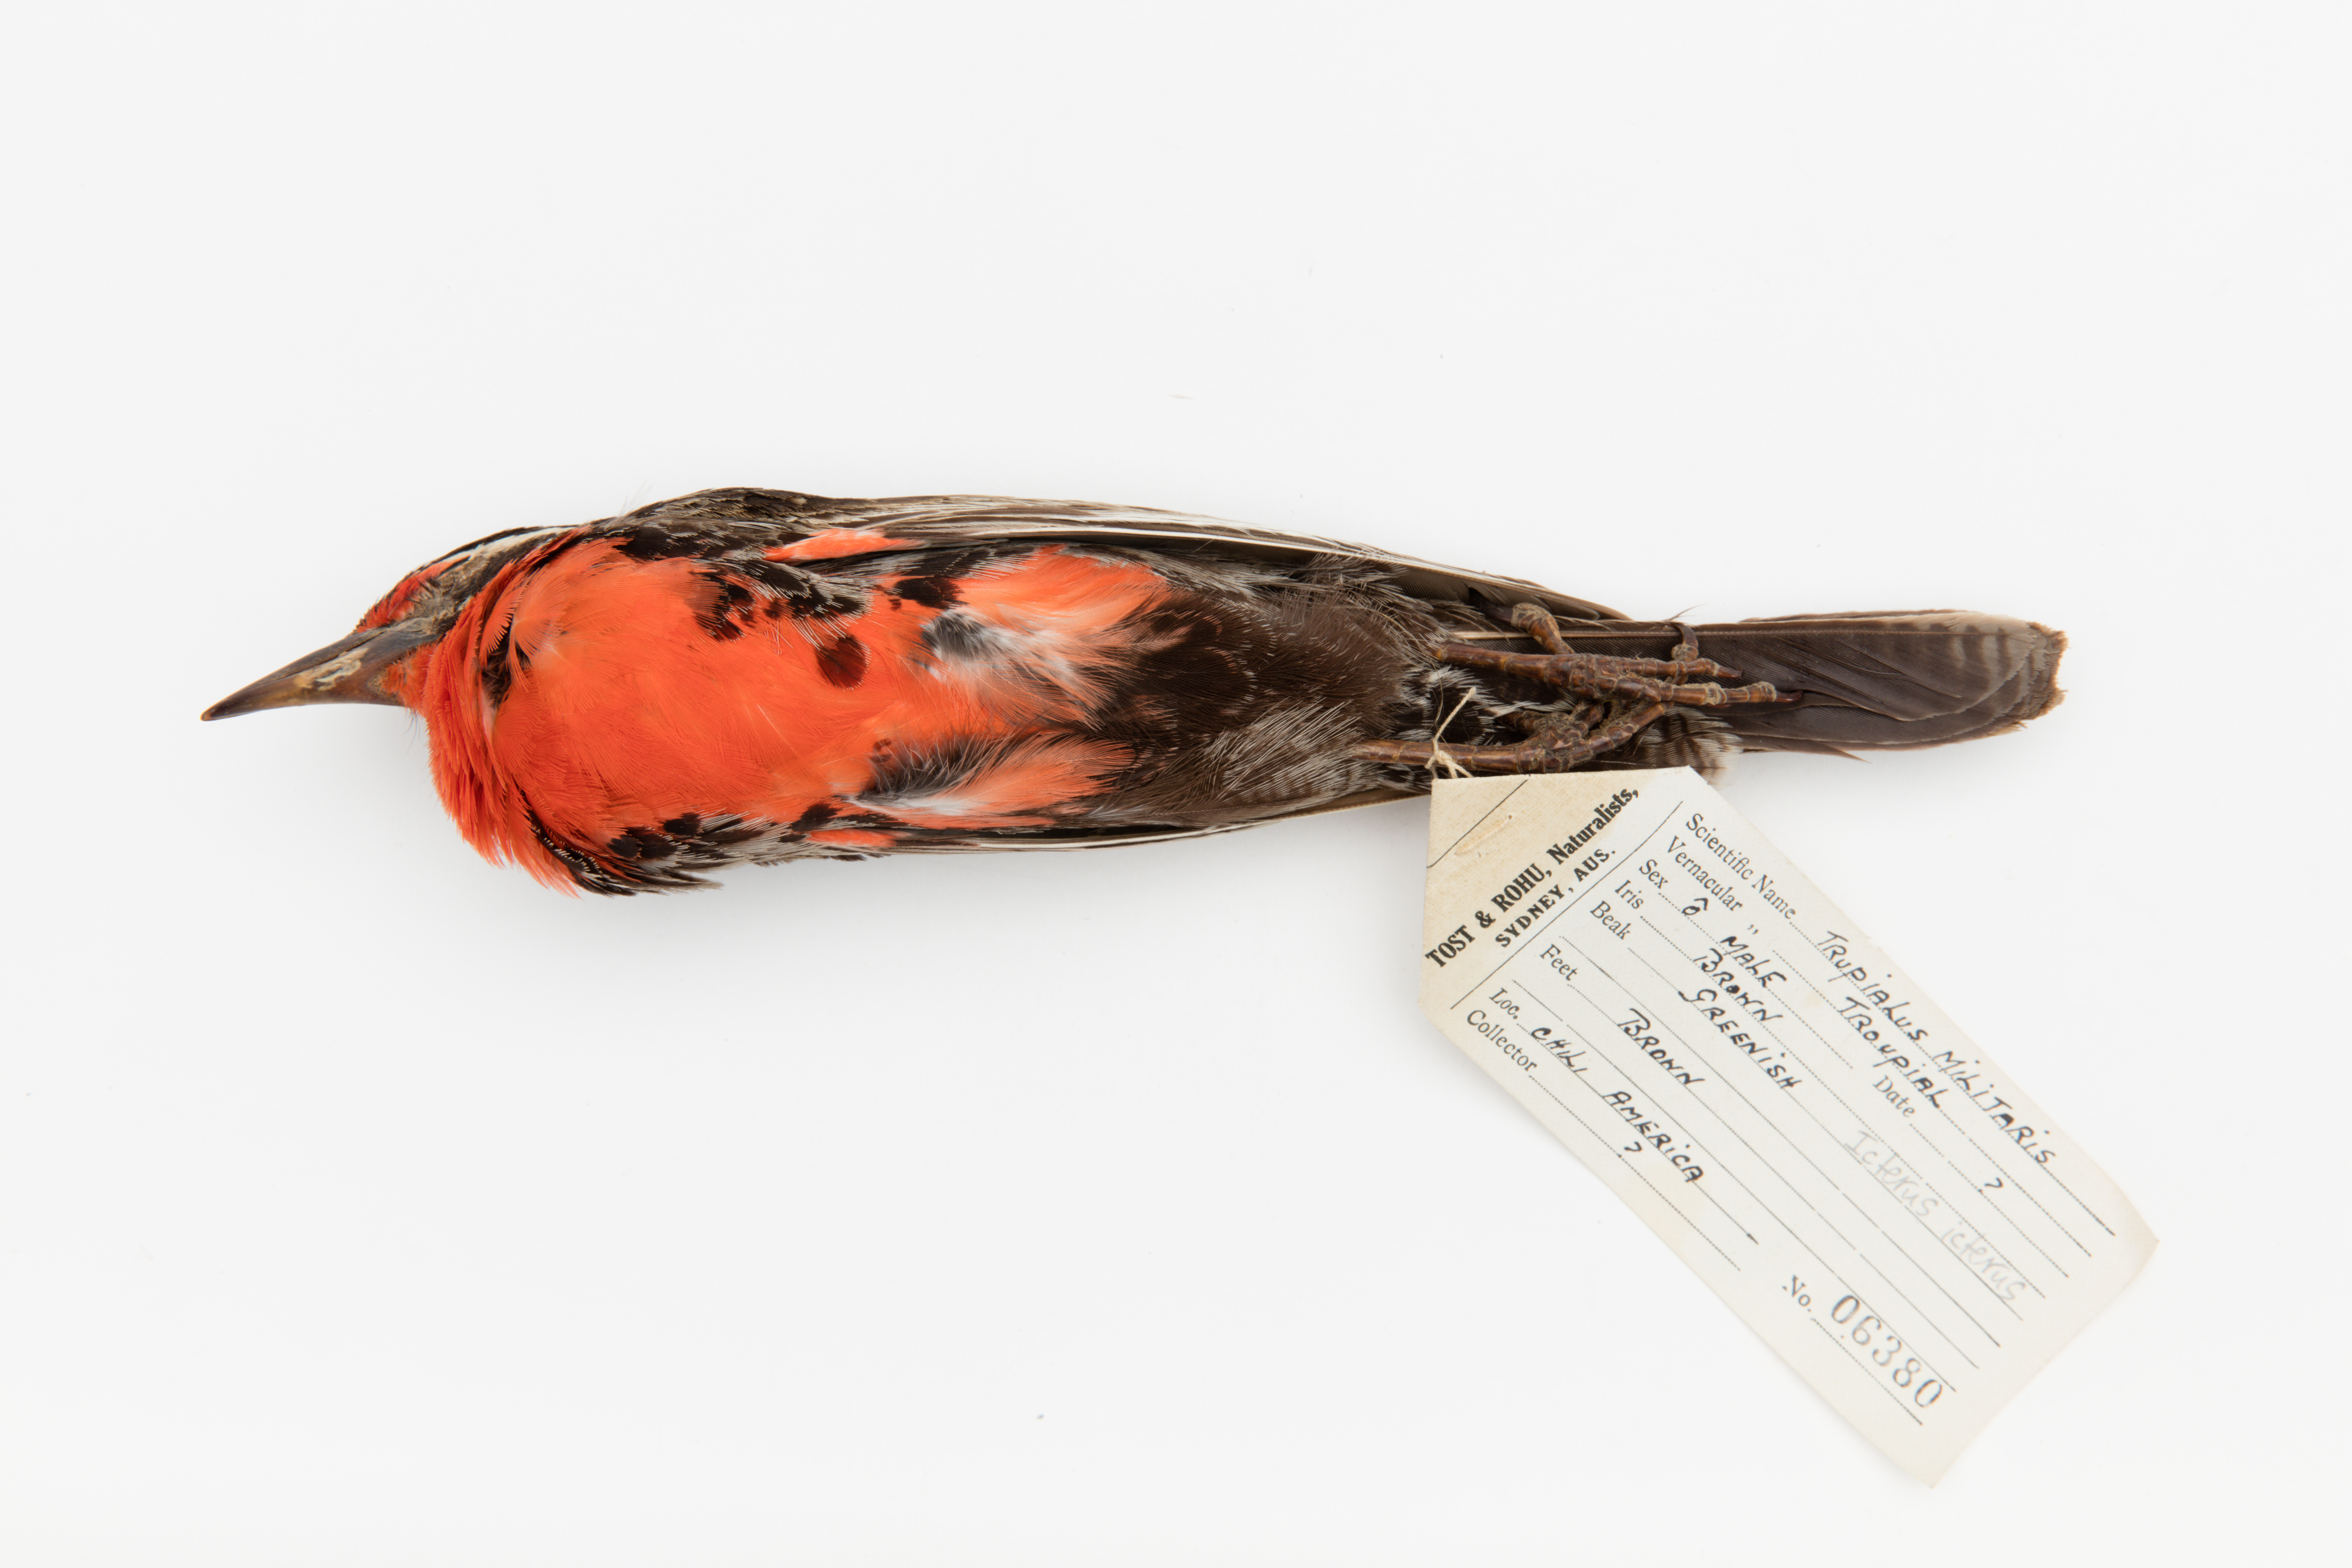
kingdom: Animalia
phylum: Chordata
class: Aves
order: Passeriformes
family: Icteridae
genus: Icterus
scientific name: Icterus icterus
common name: Venezuelan troupial
